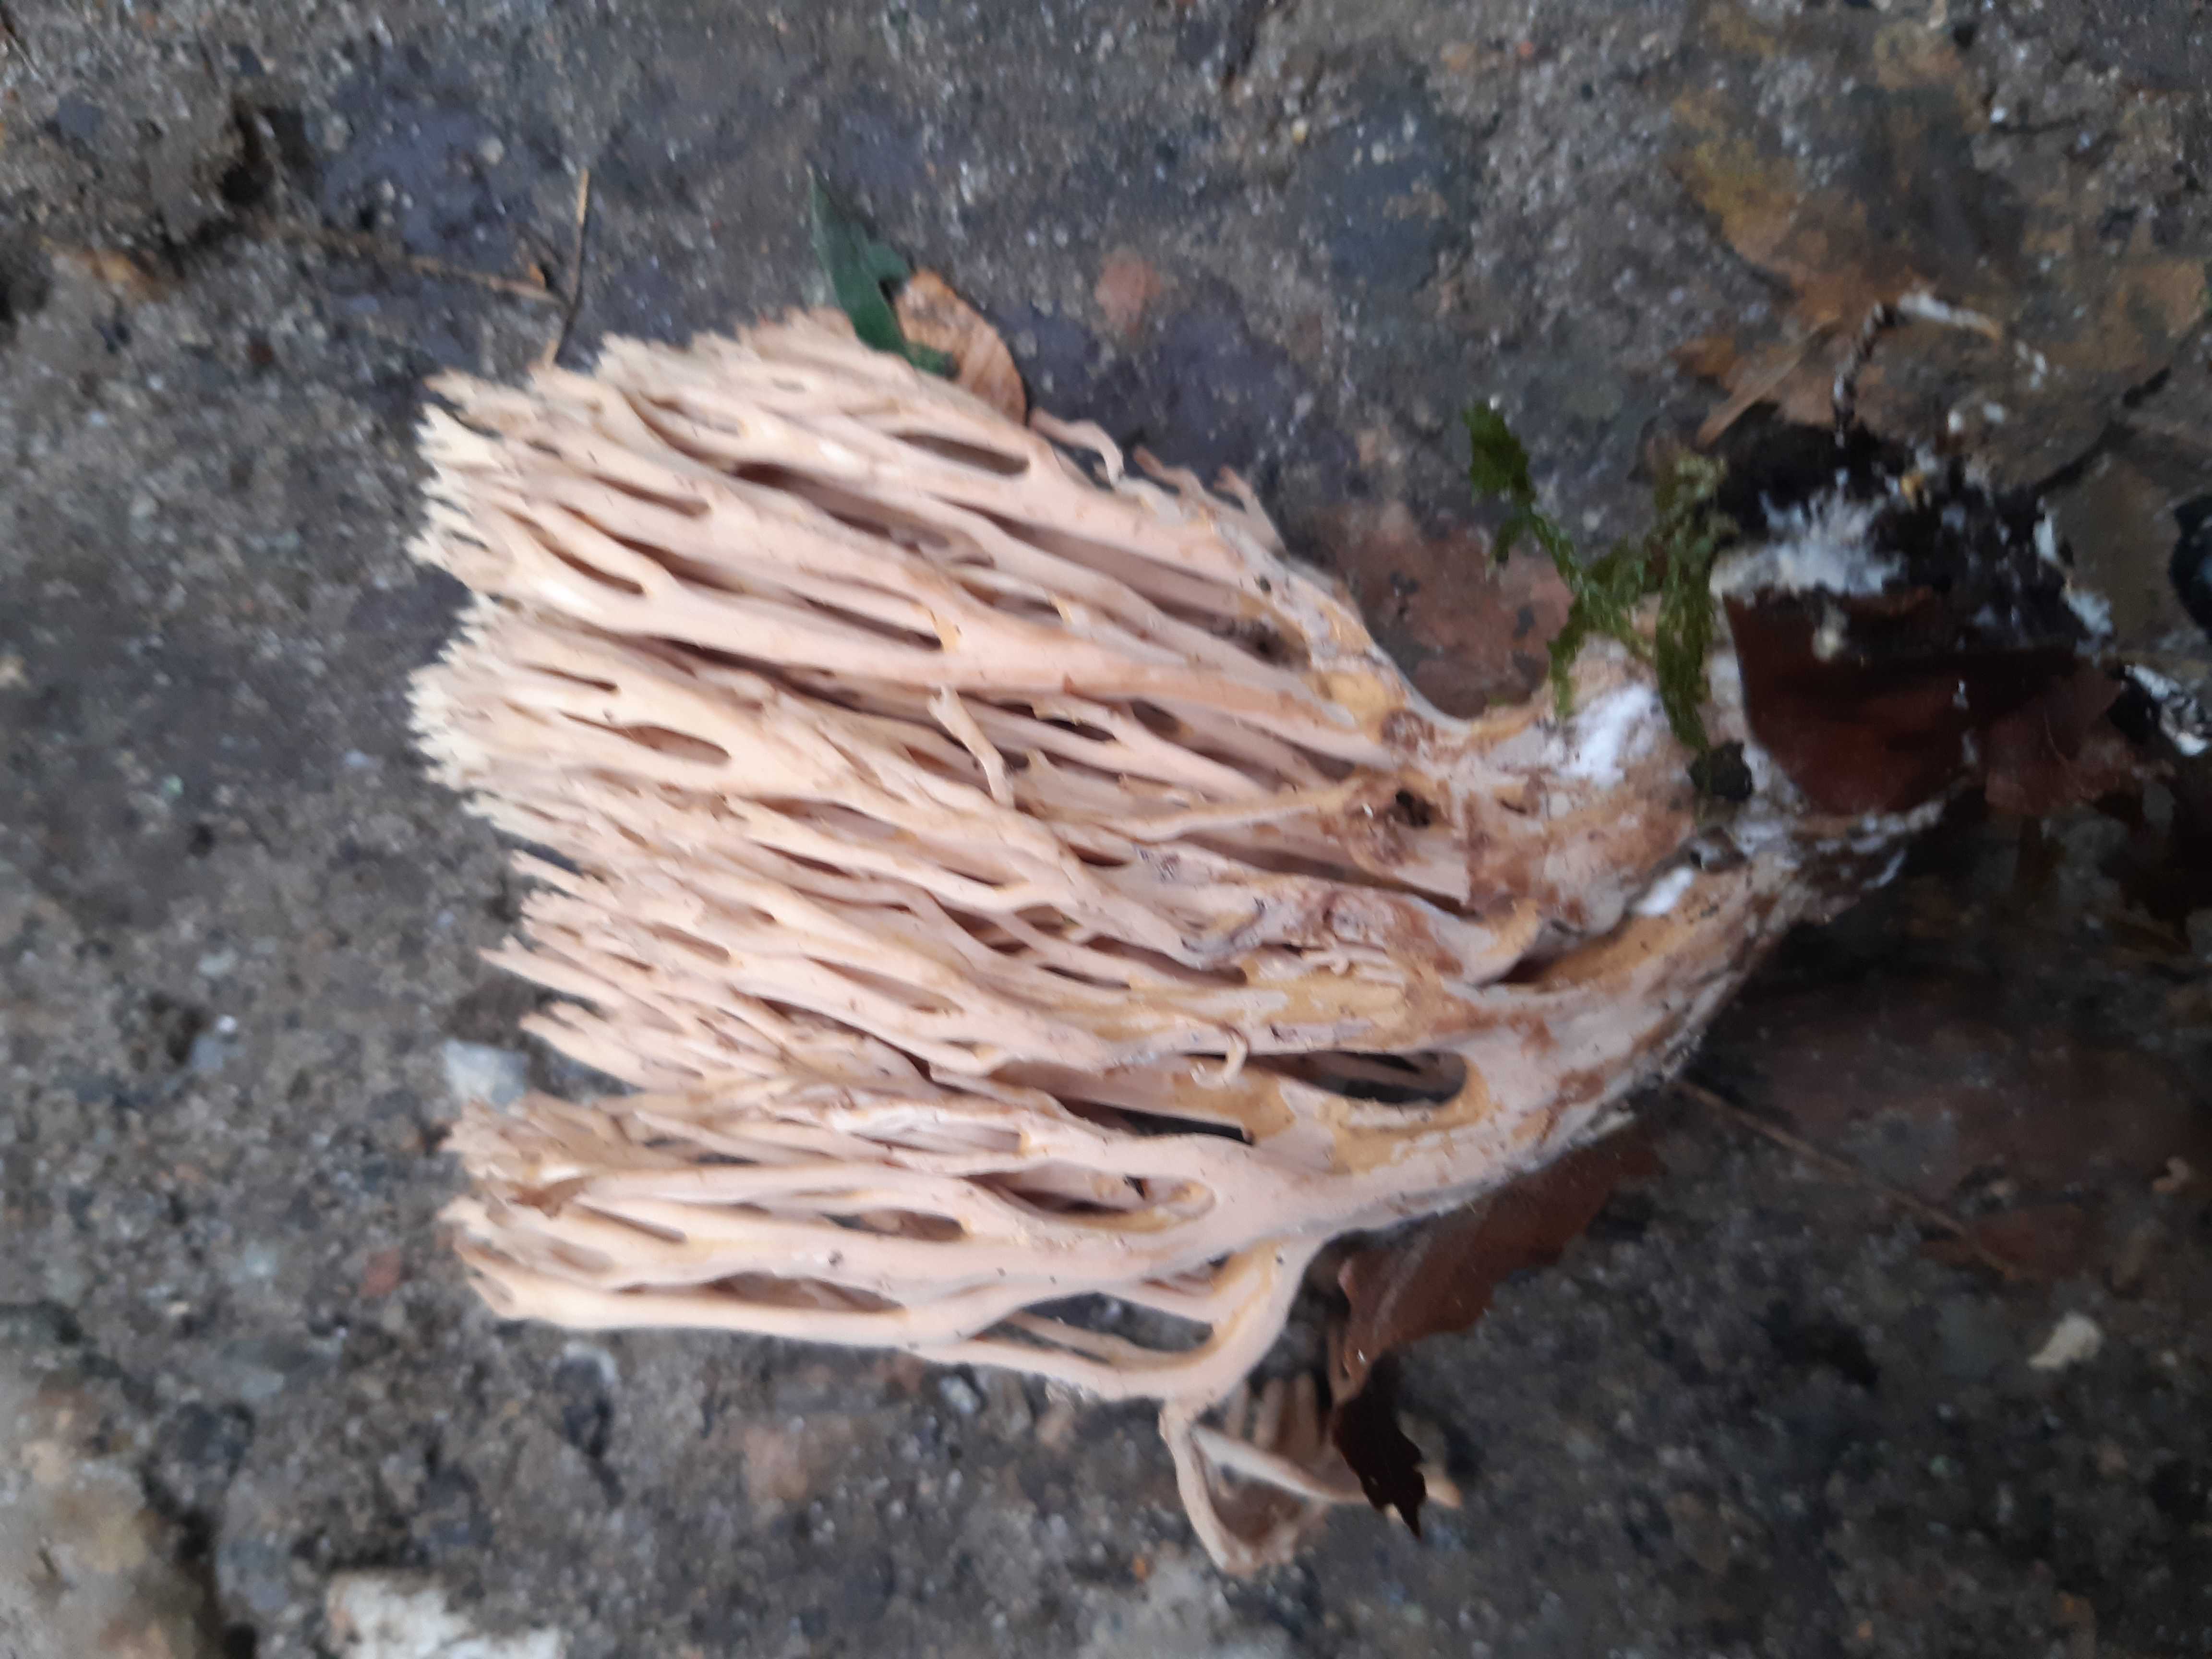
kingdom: Fungi
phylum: Basidiomycota
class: Agaricomycetes
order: Gomphales
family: Gomphaceae
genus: Ramaria
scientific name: Ramaria stricta
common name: rank koralsvamp
